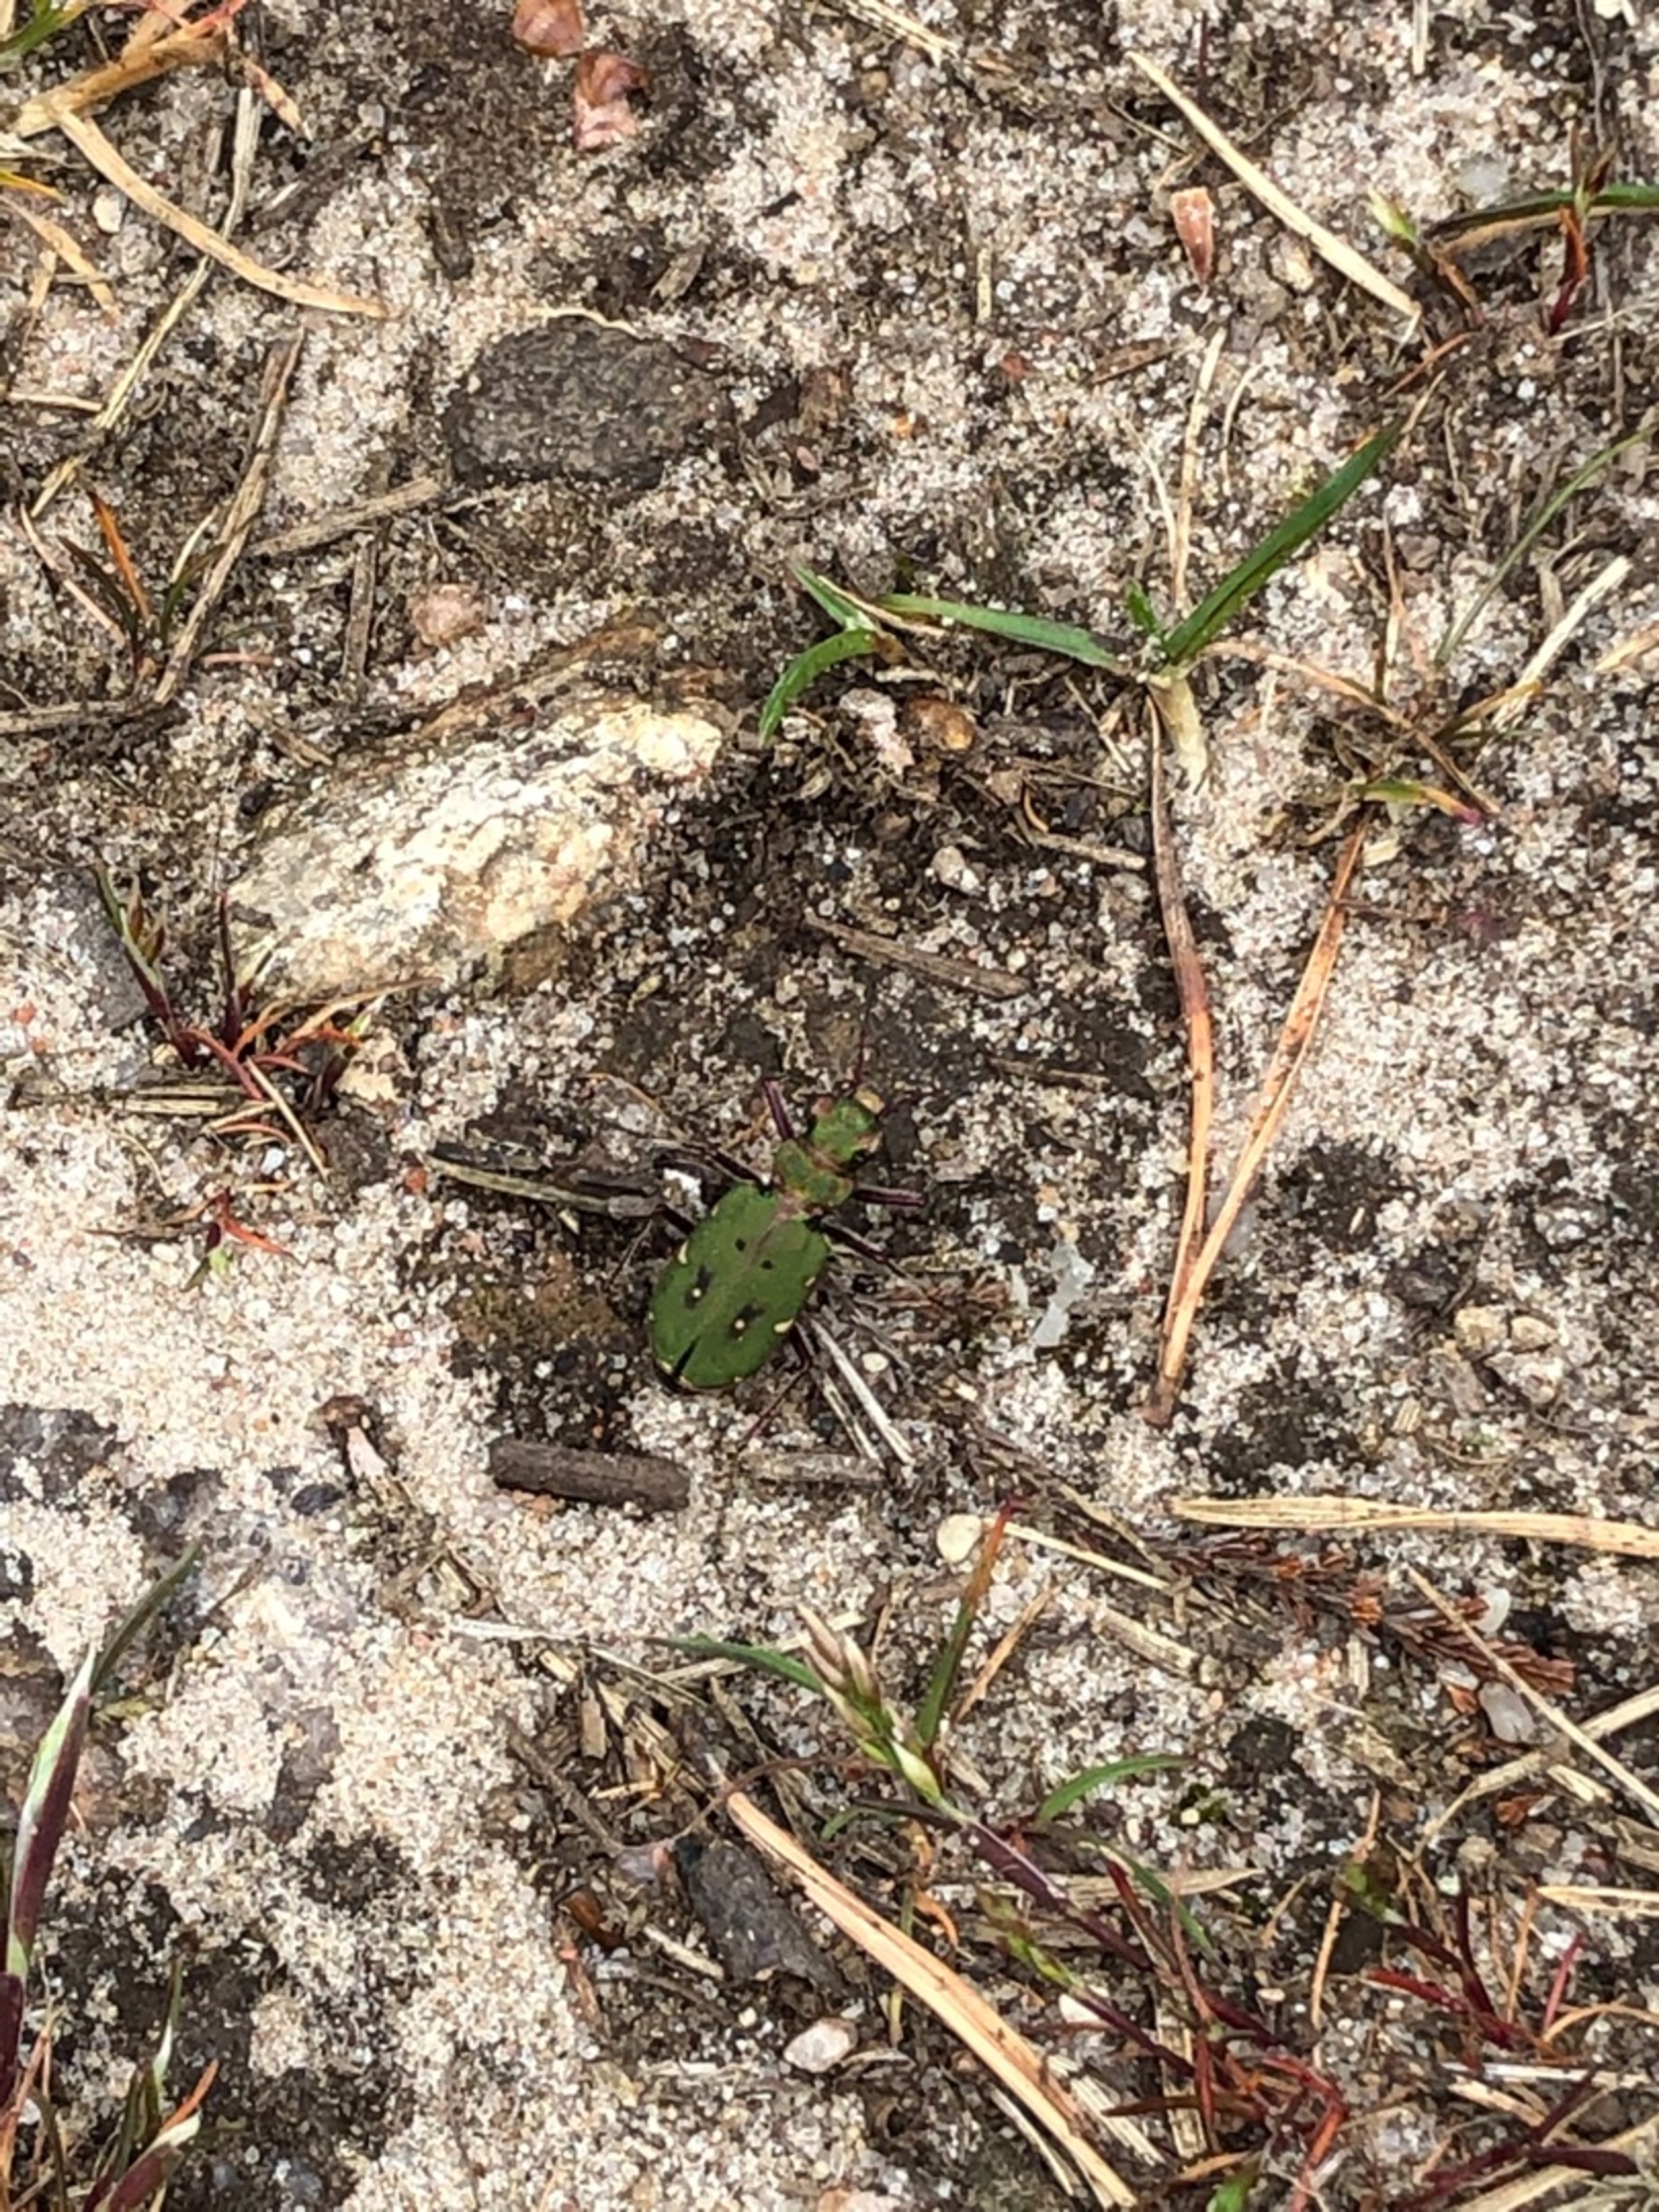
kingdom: Animalia
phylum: Arthropoda
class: Insecta
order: Coleoptera
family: Carabidae
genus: Cicindela
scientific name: Cicindela campestris
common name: Grøn sandspringer
